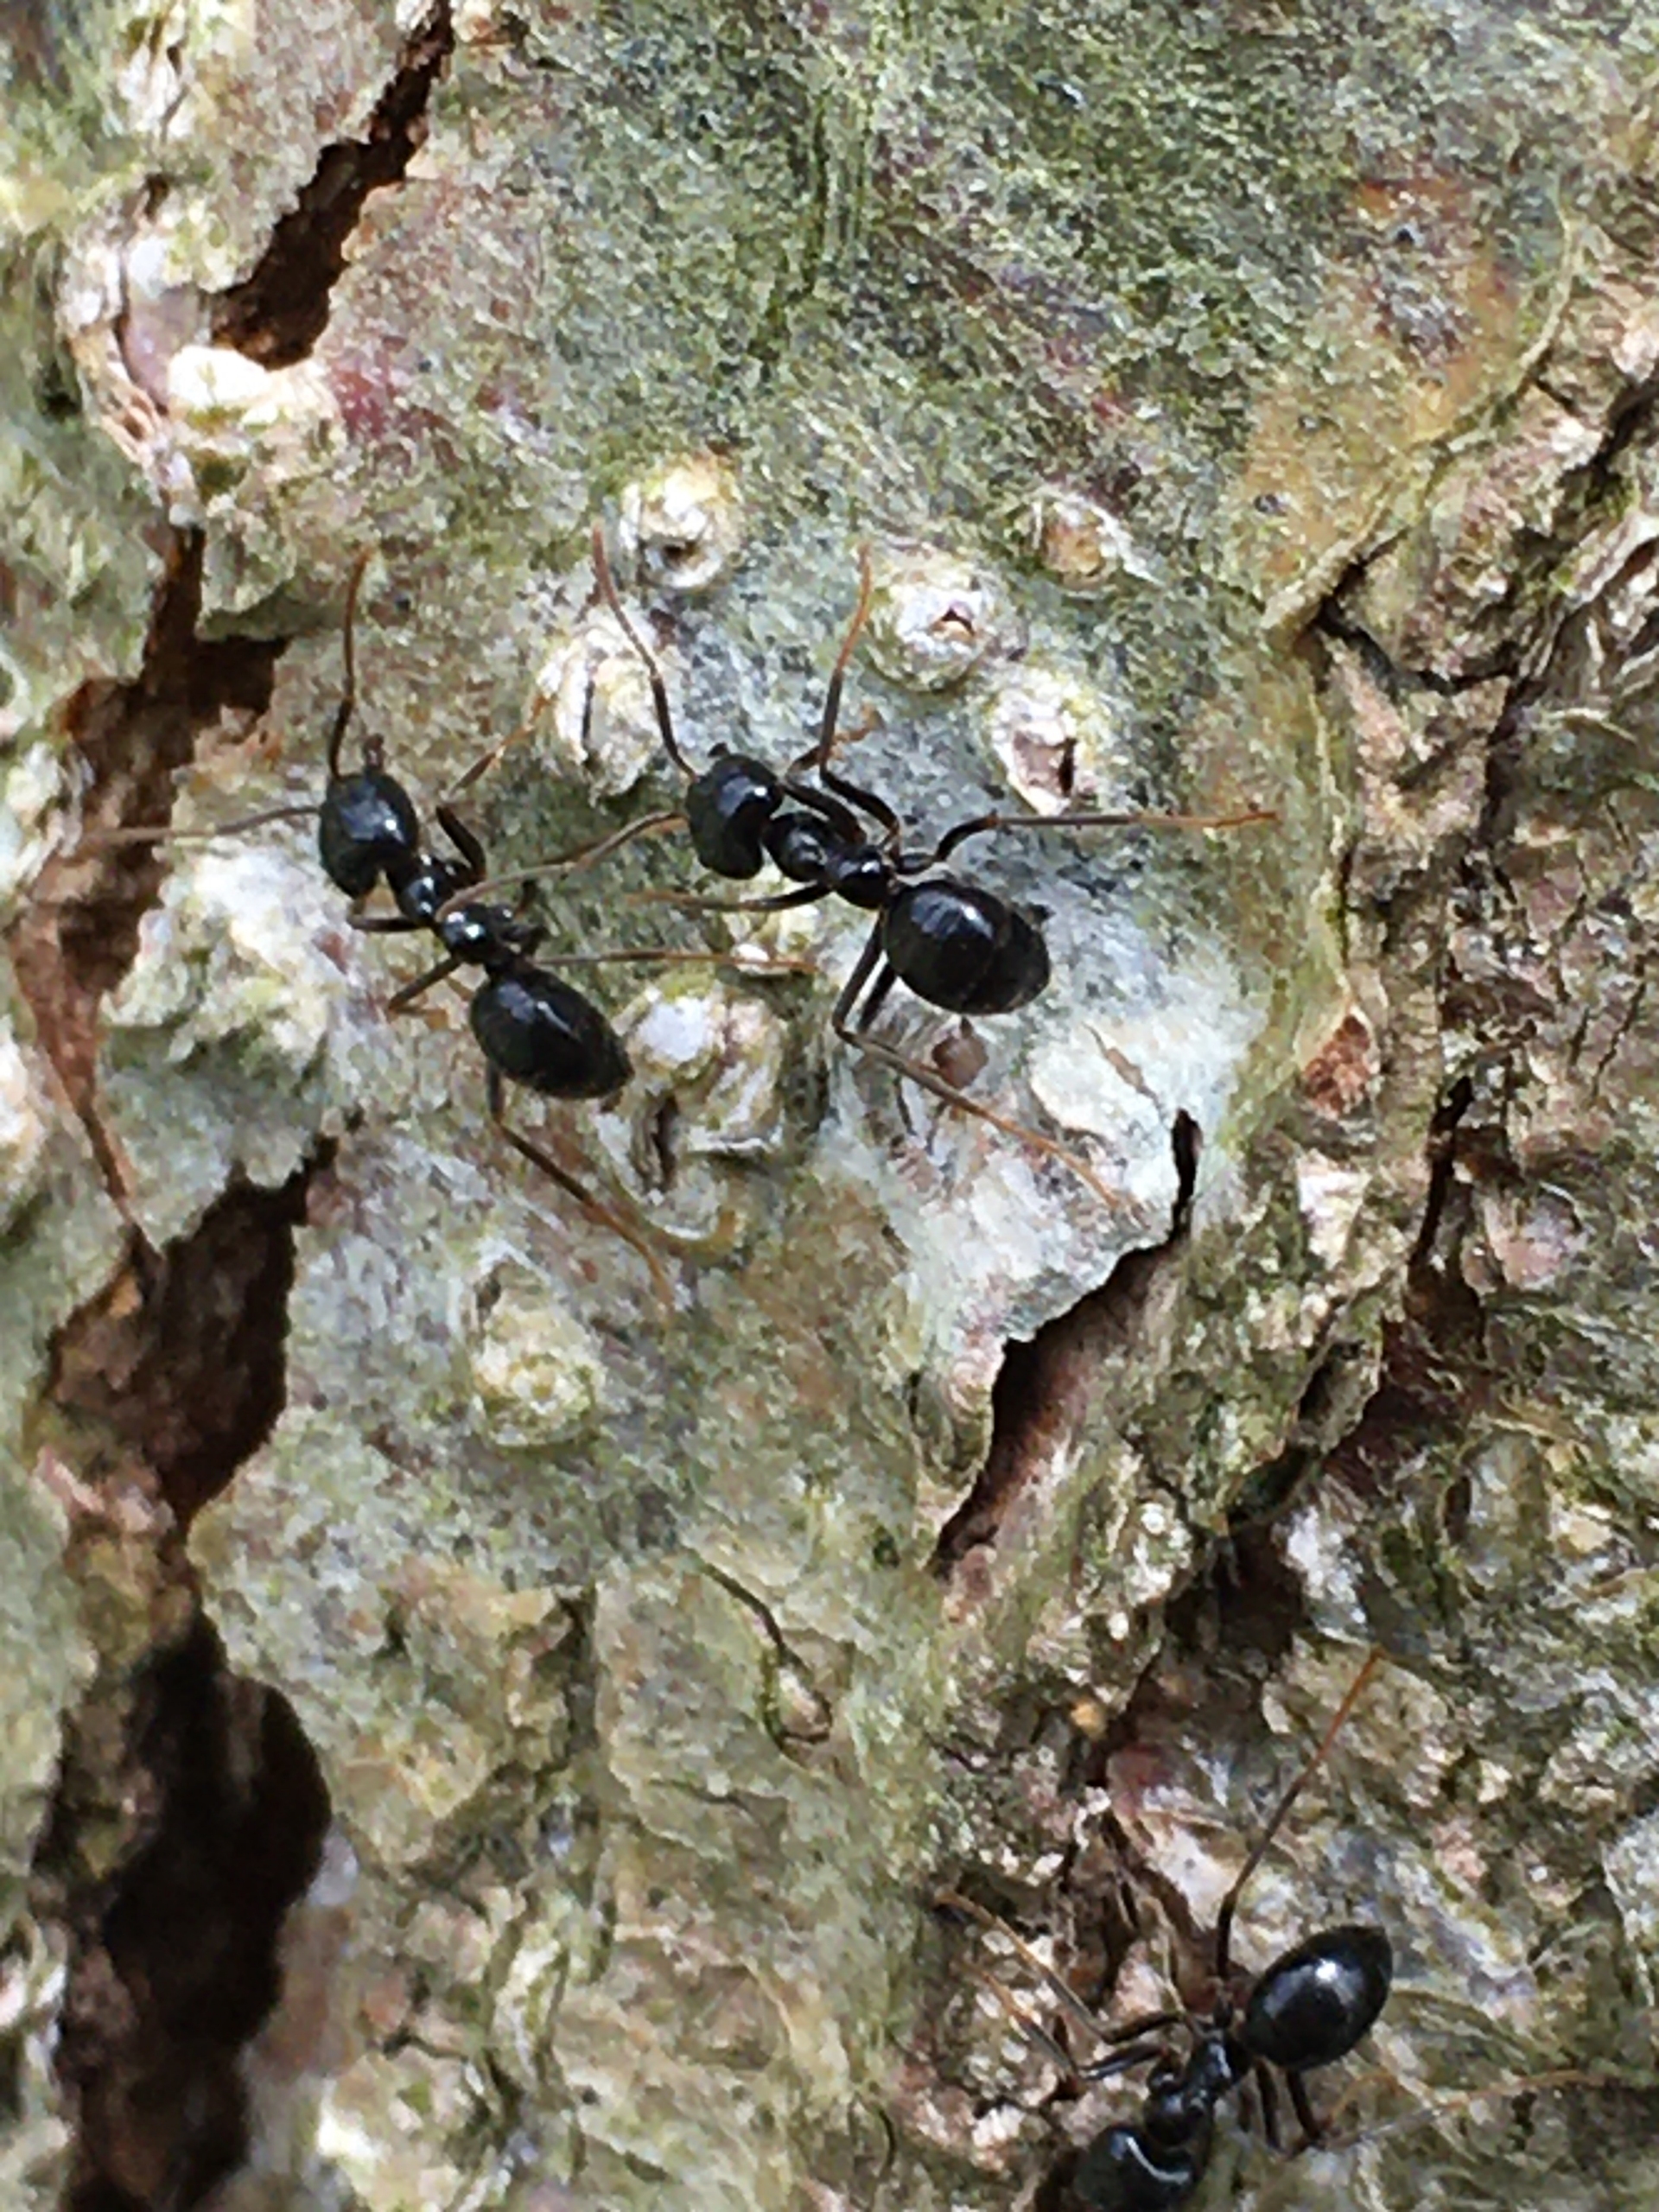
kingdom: Animalia
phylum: Arthropoda
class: Insecta
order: Hymenoptera
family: Formicidae
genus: Lasius
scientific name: Lasius fuliginosus
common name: Orangemyre
